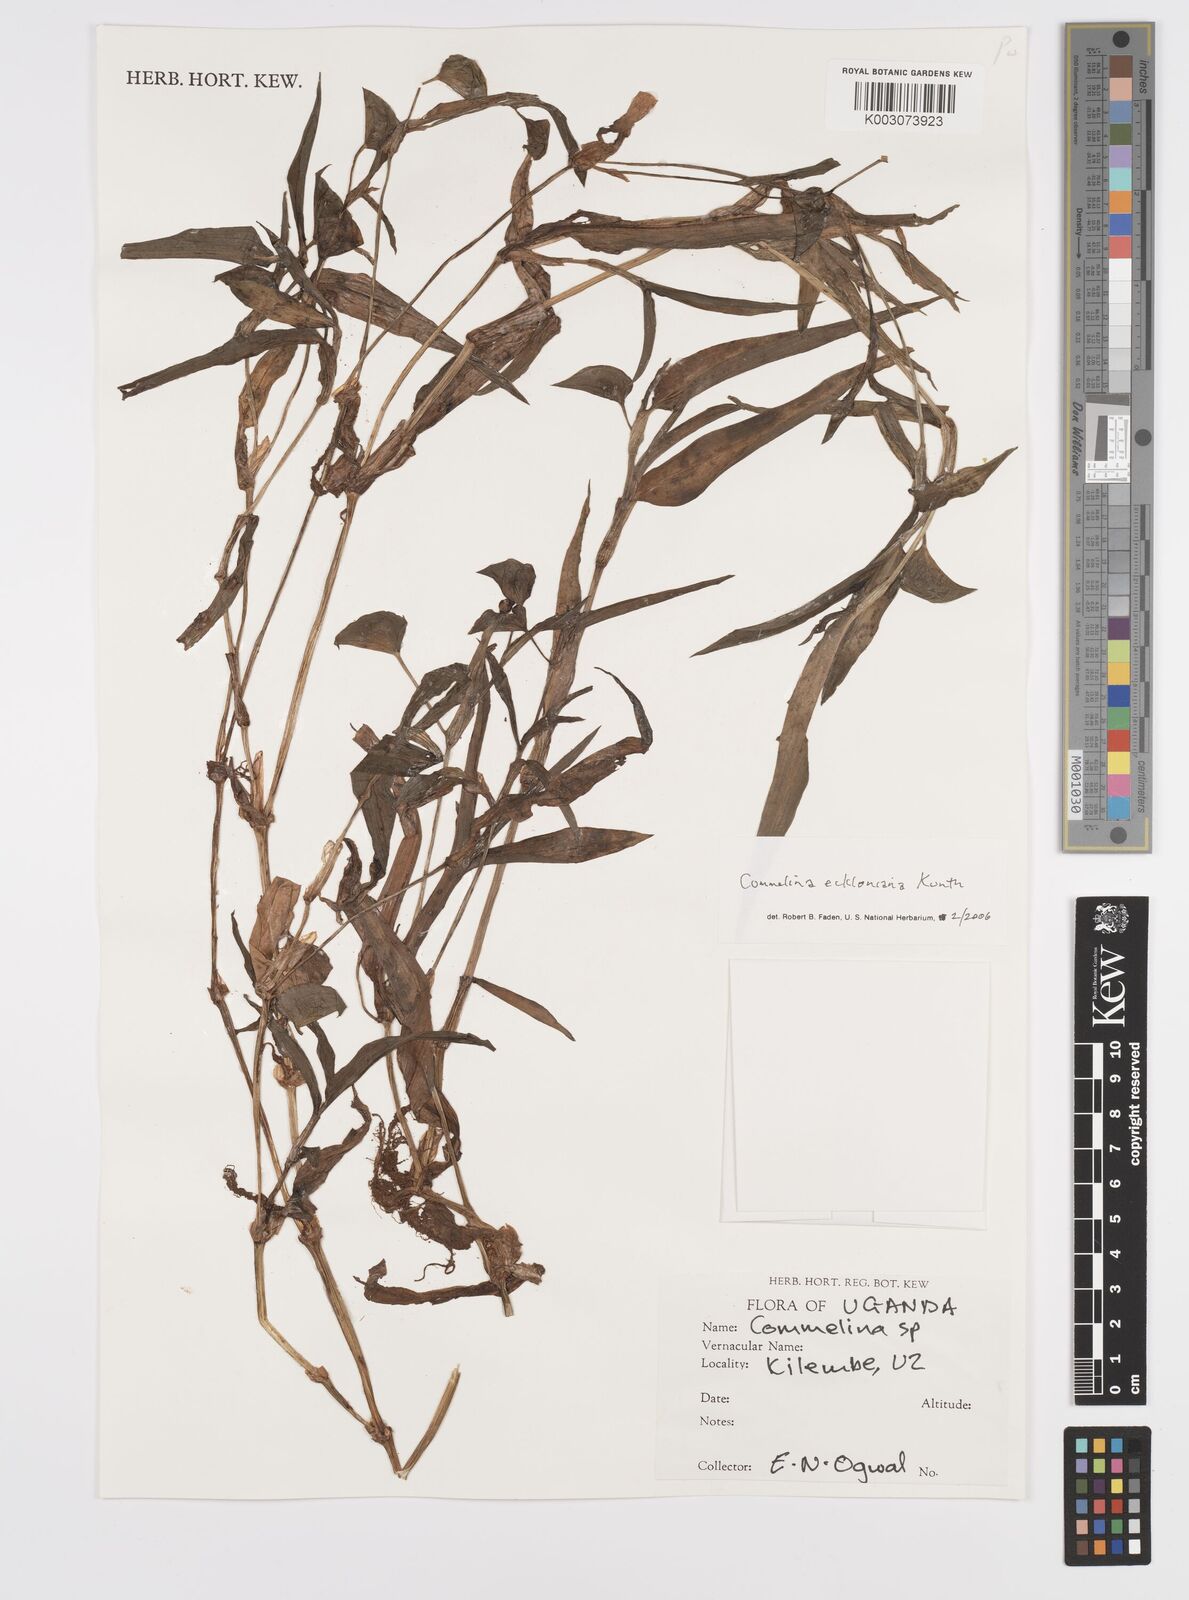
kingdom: Plantae
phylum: Tracheophyta
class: Liliopsida
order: Commelinales
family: Commelinaceae
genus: Commelina
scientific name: Commelina eckloniana
